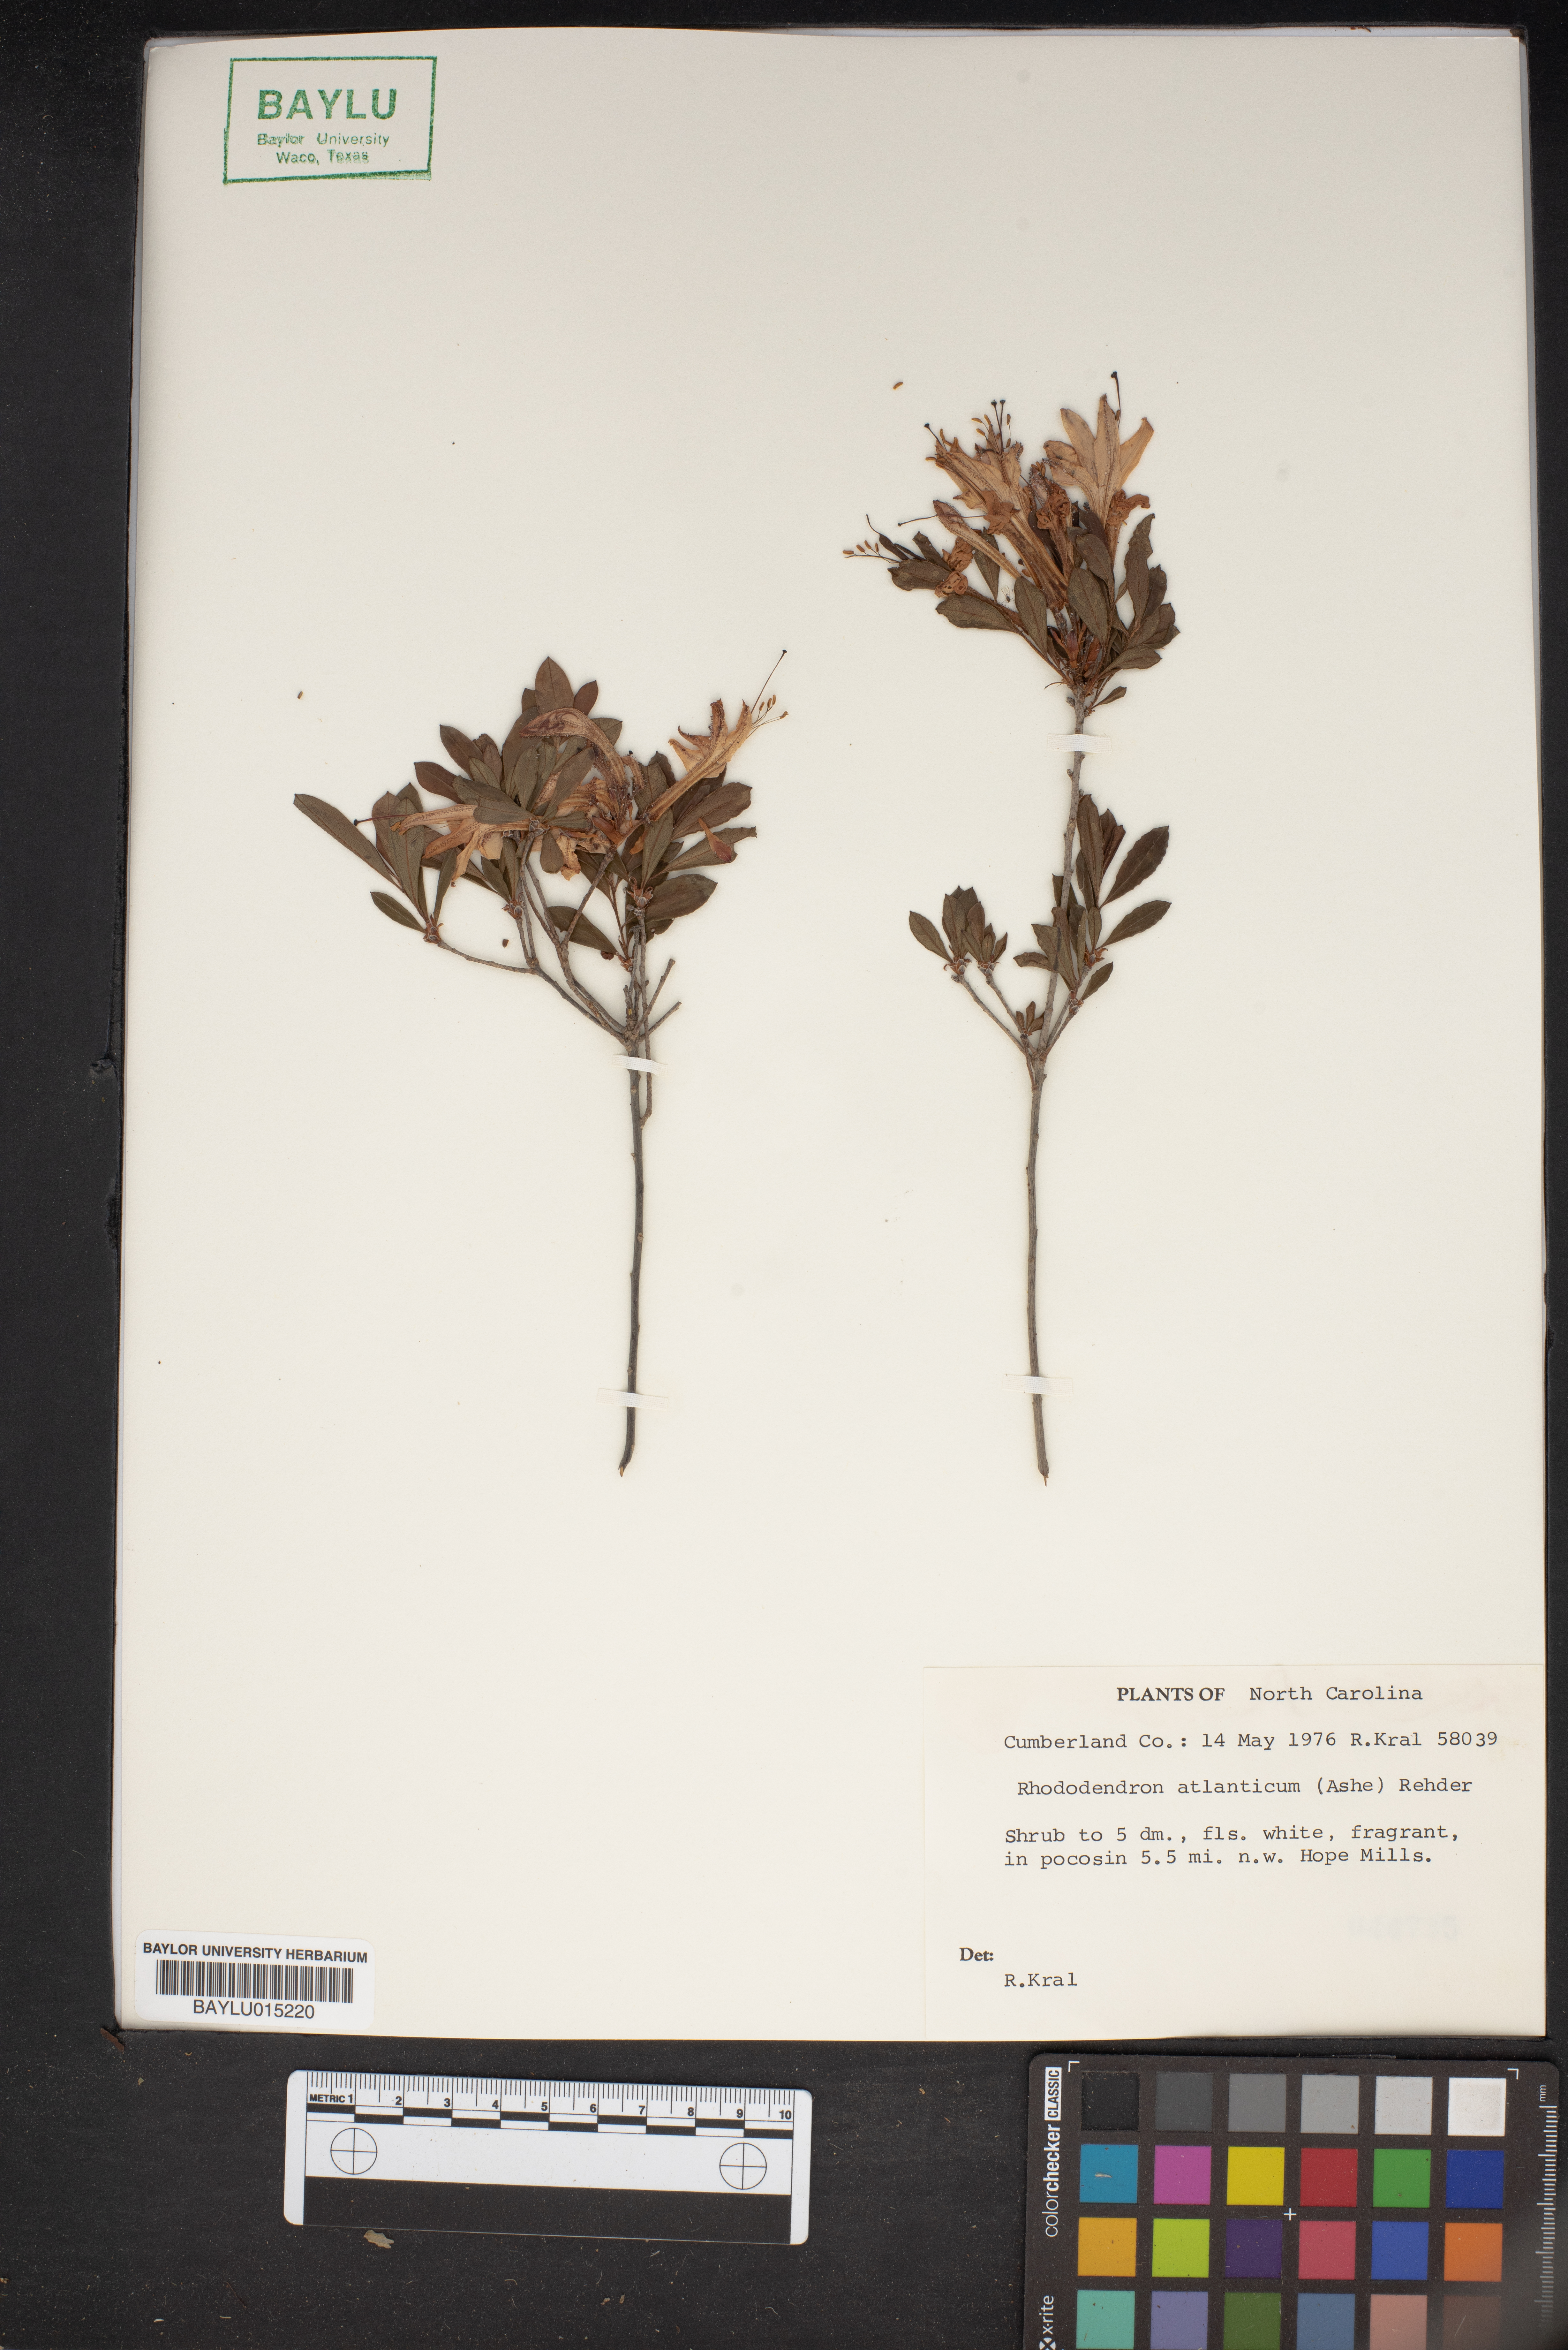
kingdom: Plantae
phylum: Tracheophyta
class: Magnoliopsida
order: Ericales
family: Ericaceae
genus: Rhododendron
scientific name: Rhododendron atlanticum
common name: Dwarf azalea
